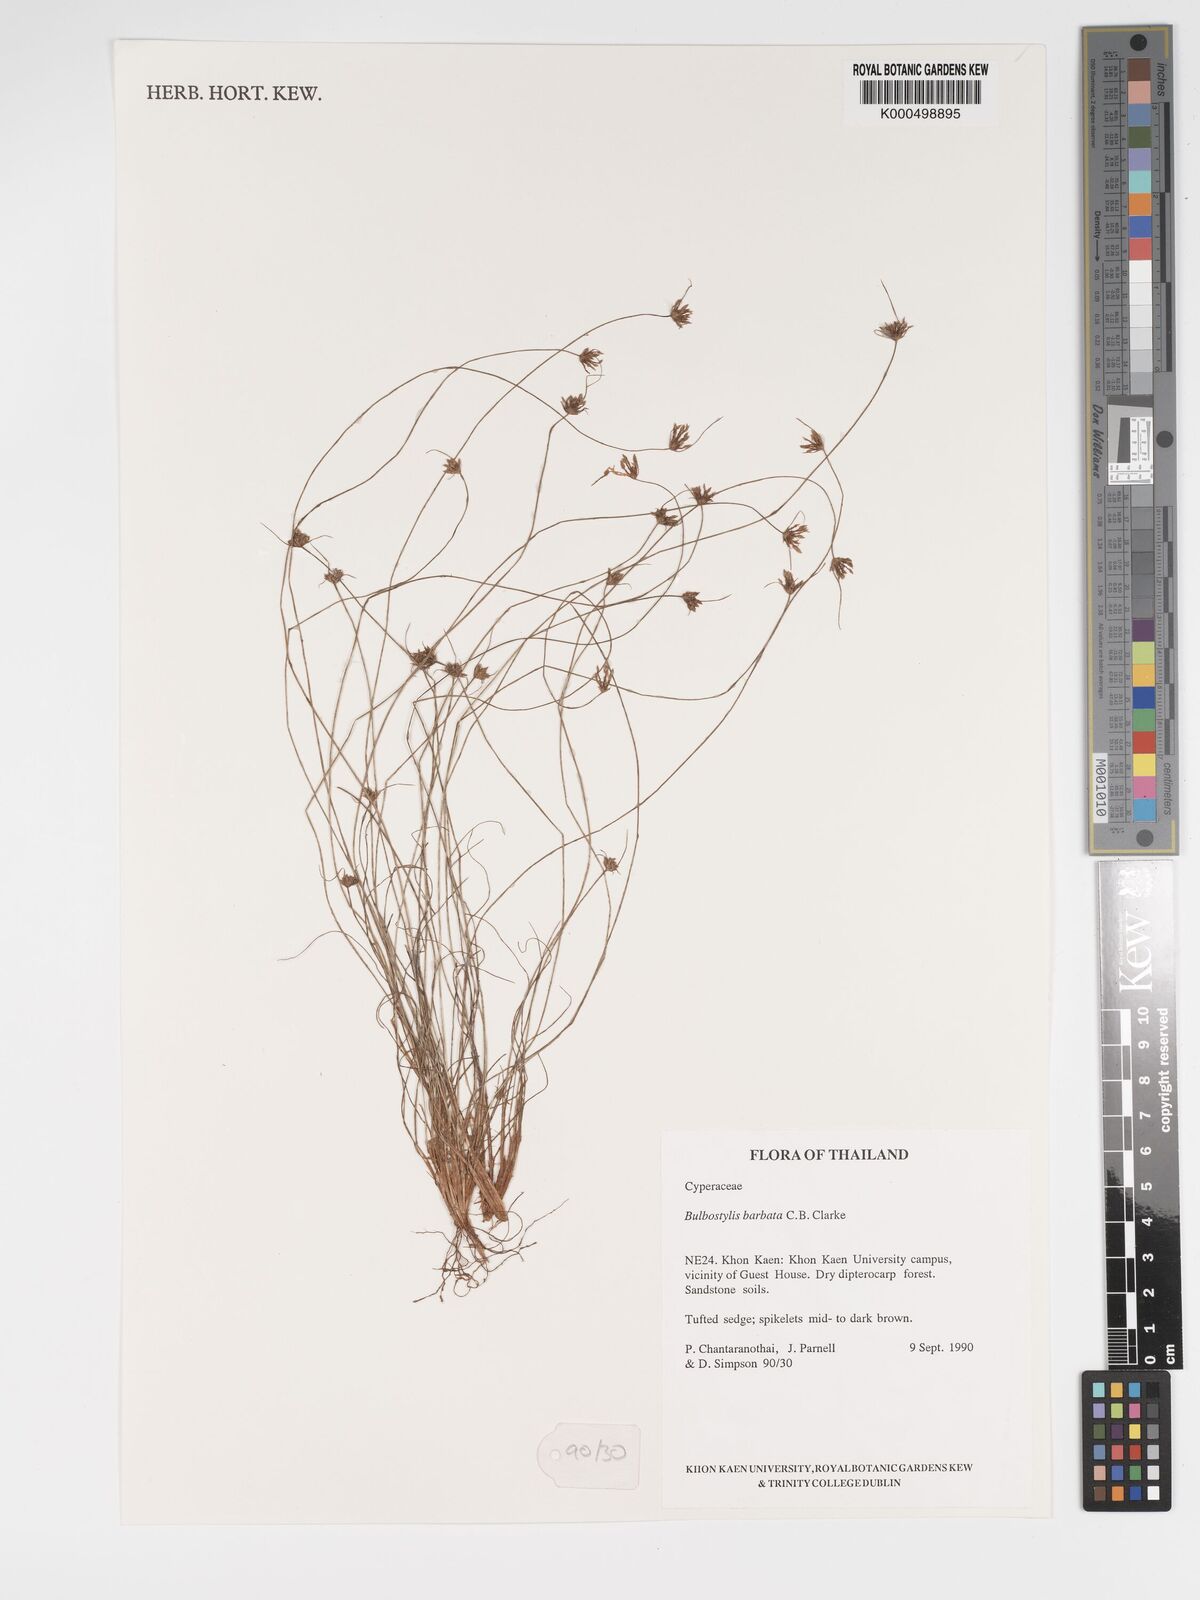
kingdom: Plantae
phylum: Tracheophyta
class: Liliopsida
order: Poales
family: Cyperaceae
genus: Bulbostylis
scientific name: Bulbostylis barbata
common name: Watergrass
